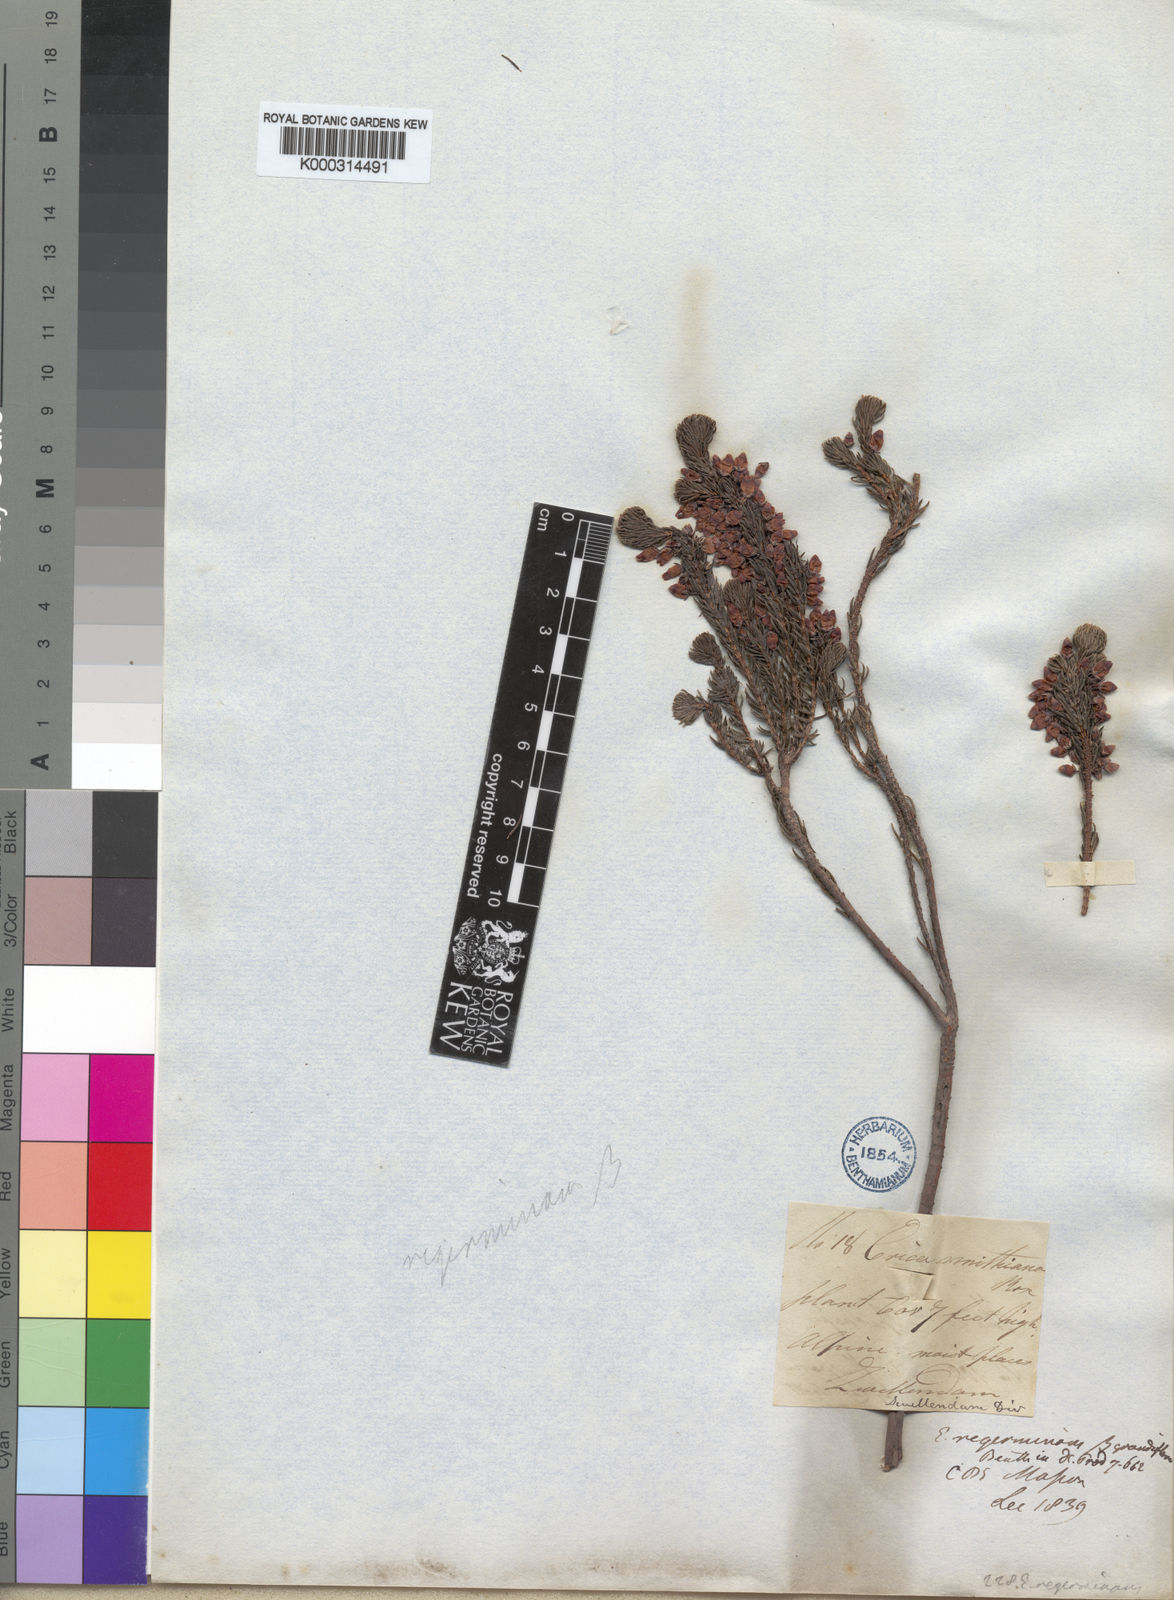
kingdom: Plantae
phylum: Tracheophyta
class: Magnoliopsida
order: Ericales
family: Ericaceae
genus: Erica
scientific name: Erica
